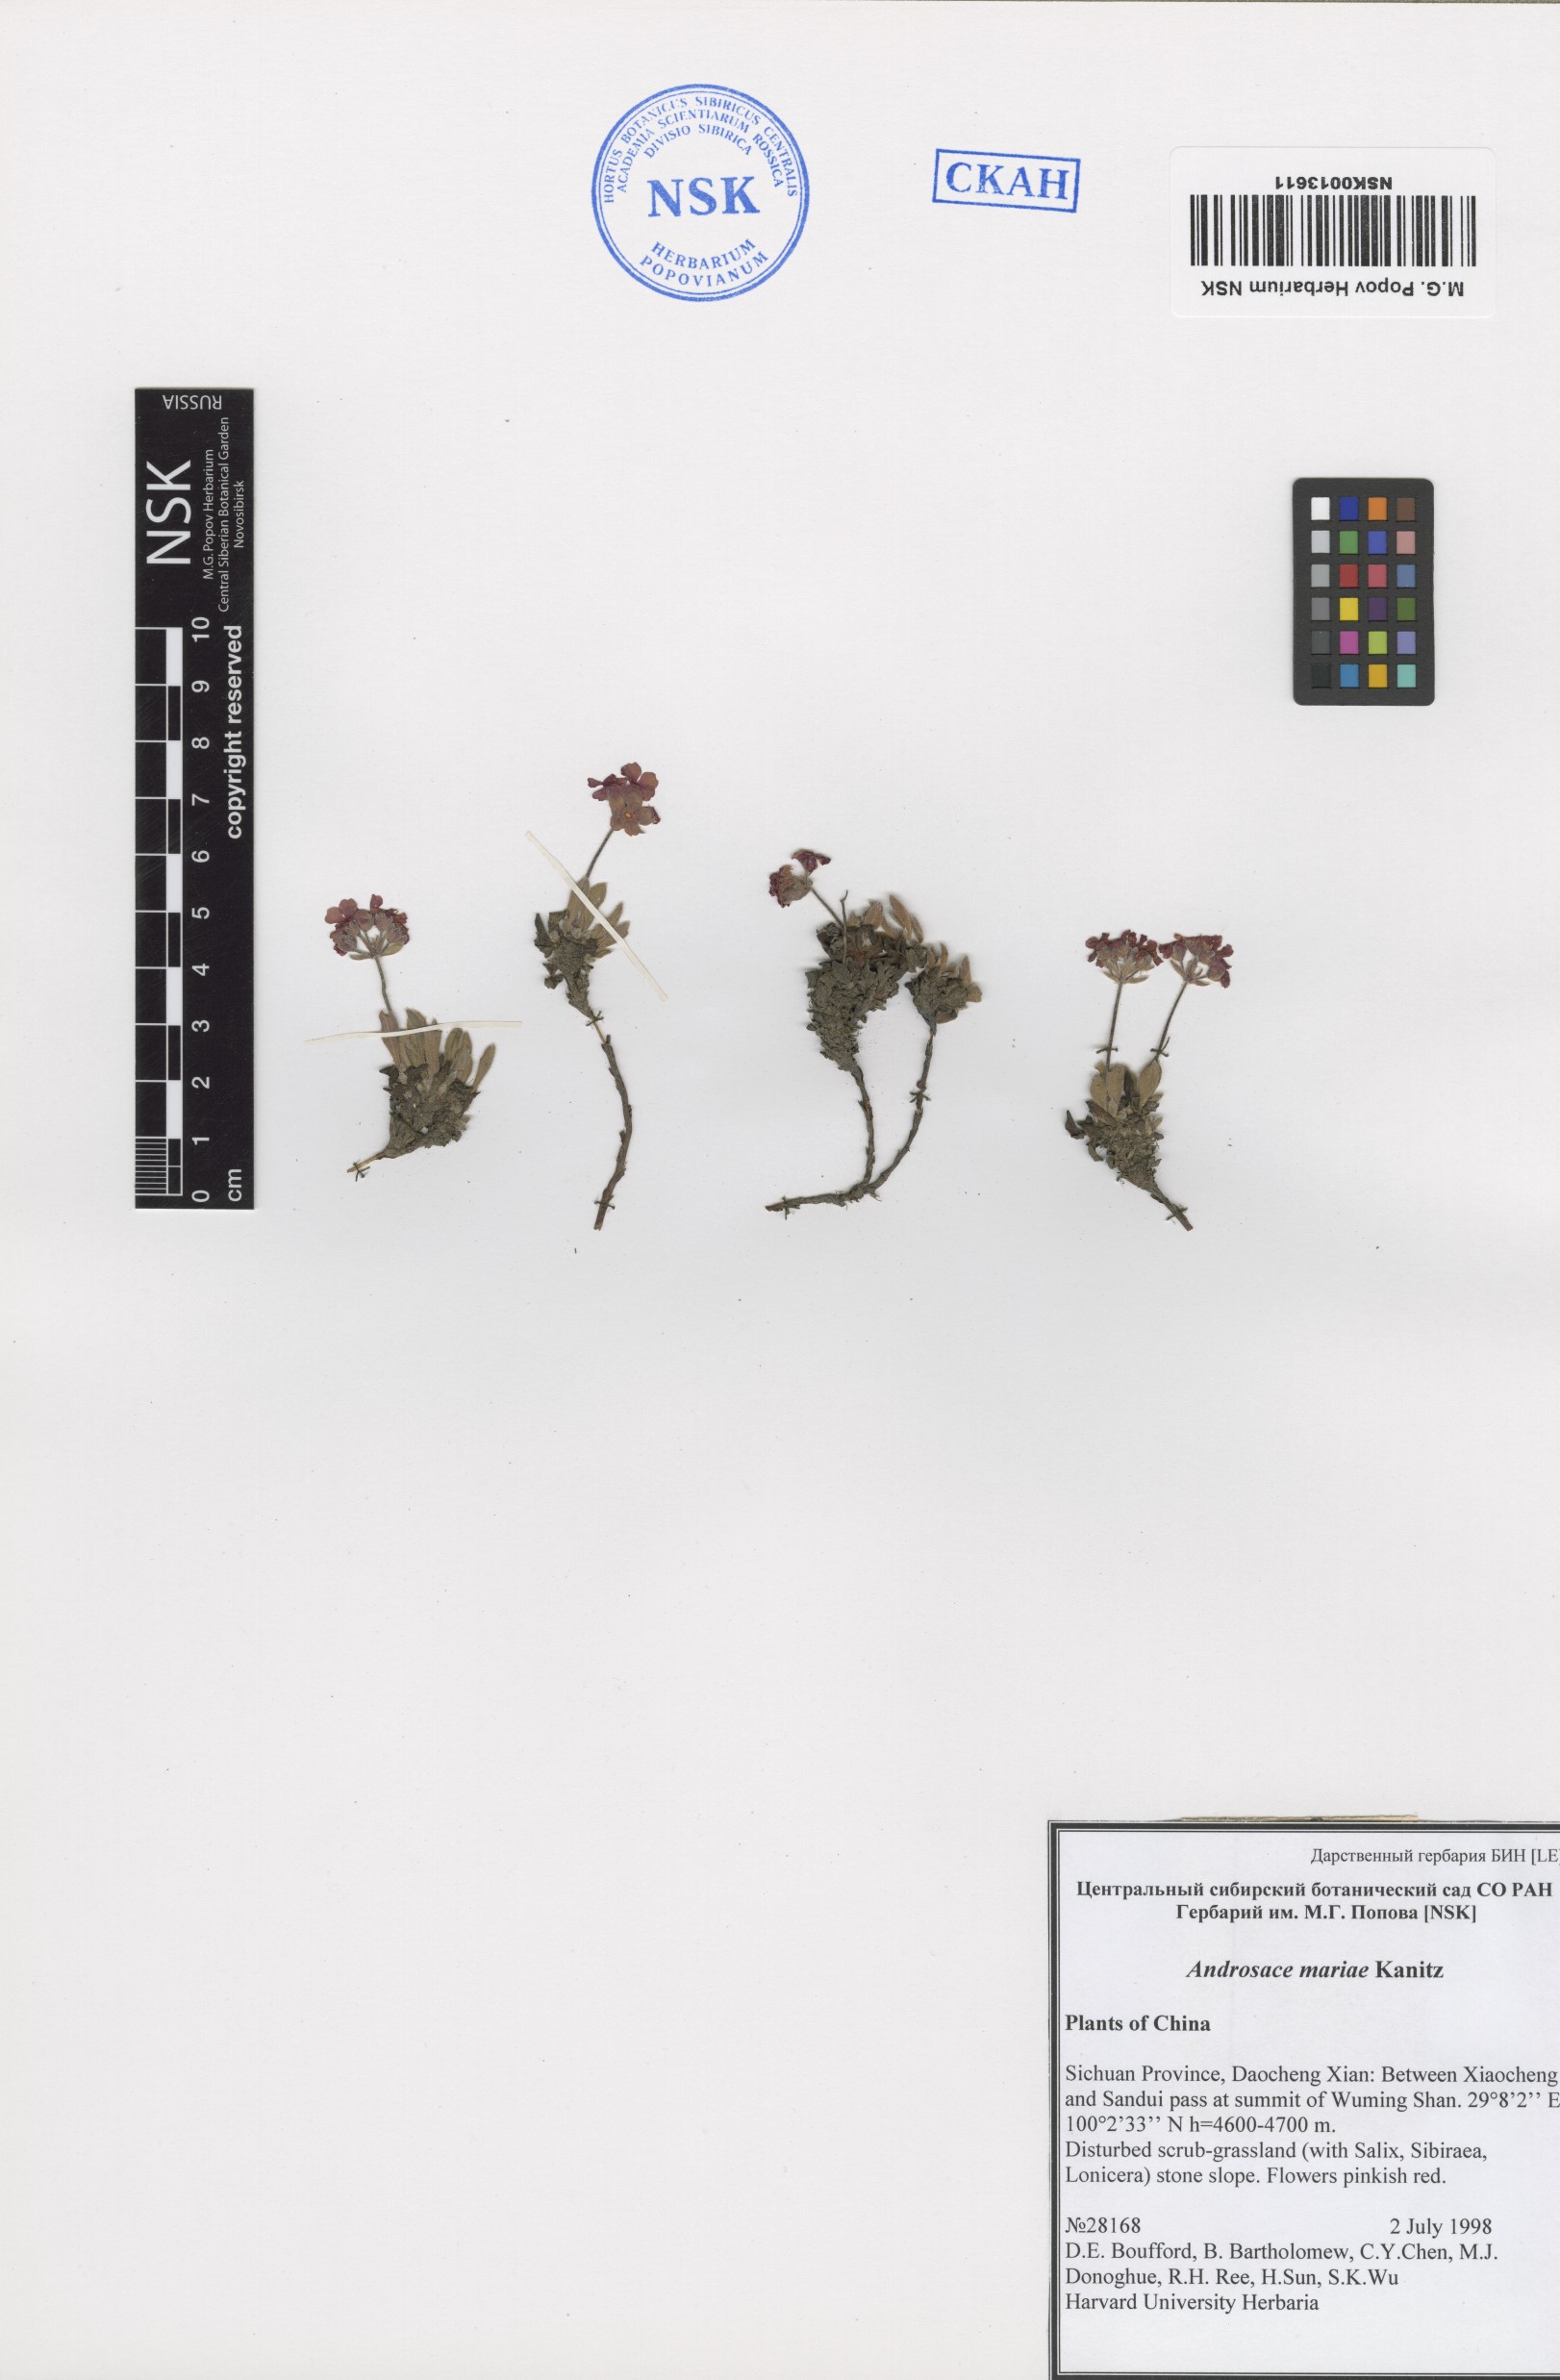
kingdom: Plantae
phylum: Tracheophyta
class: Magnoliopsida
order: Ericales
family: Primulaceae
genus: Androsace
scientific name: Androsace mariae
